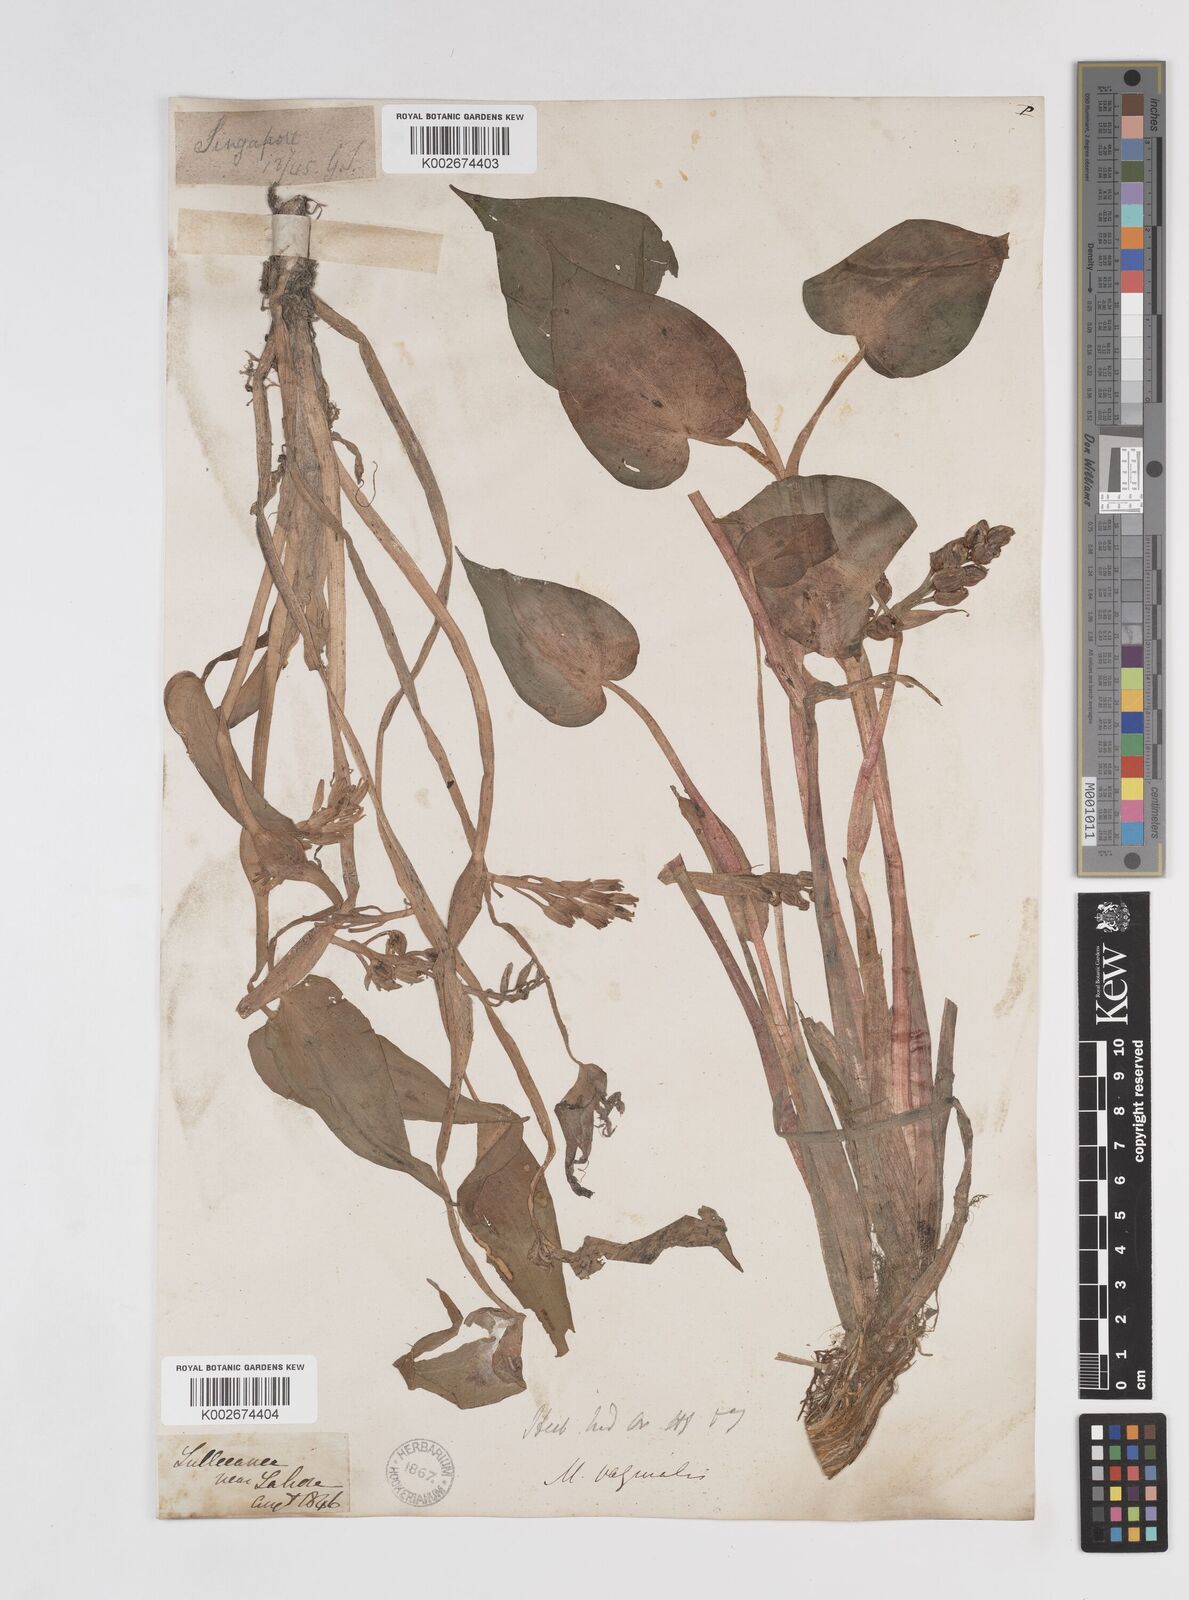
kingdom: Plantae
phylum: Tracheophyta
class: Liliopsida
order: Commelinales
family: Pontederiaceae
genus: Pontederia
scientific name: Pontederia vaginalis
